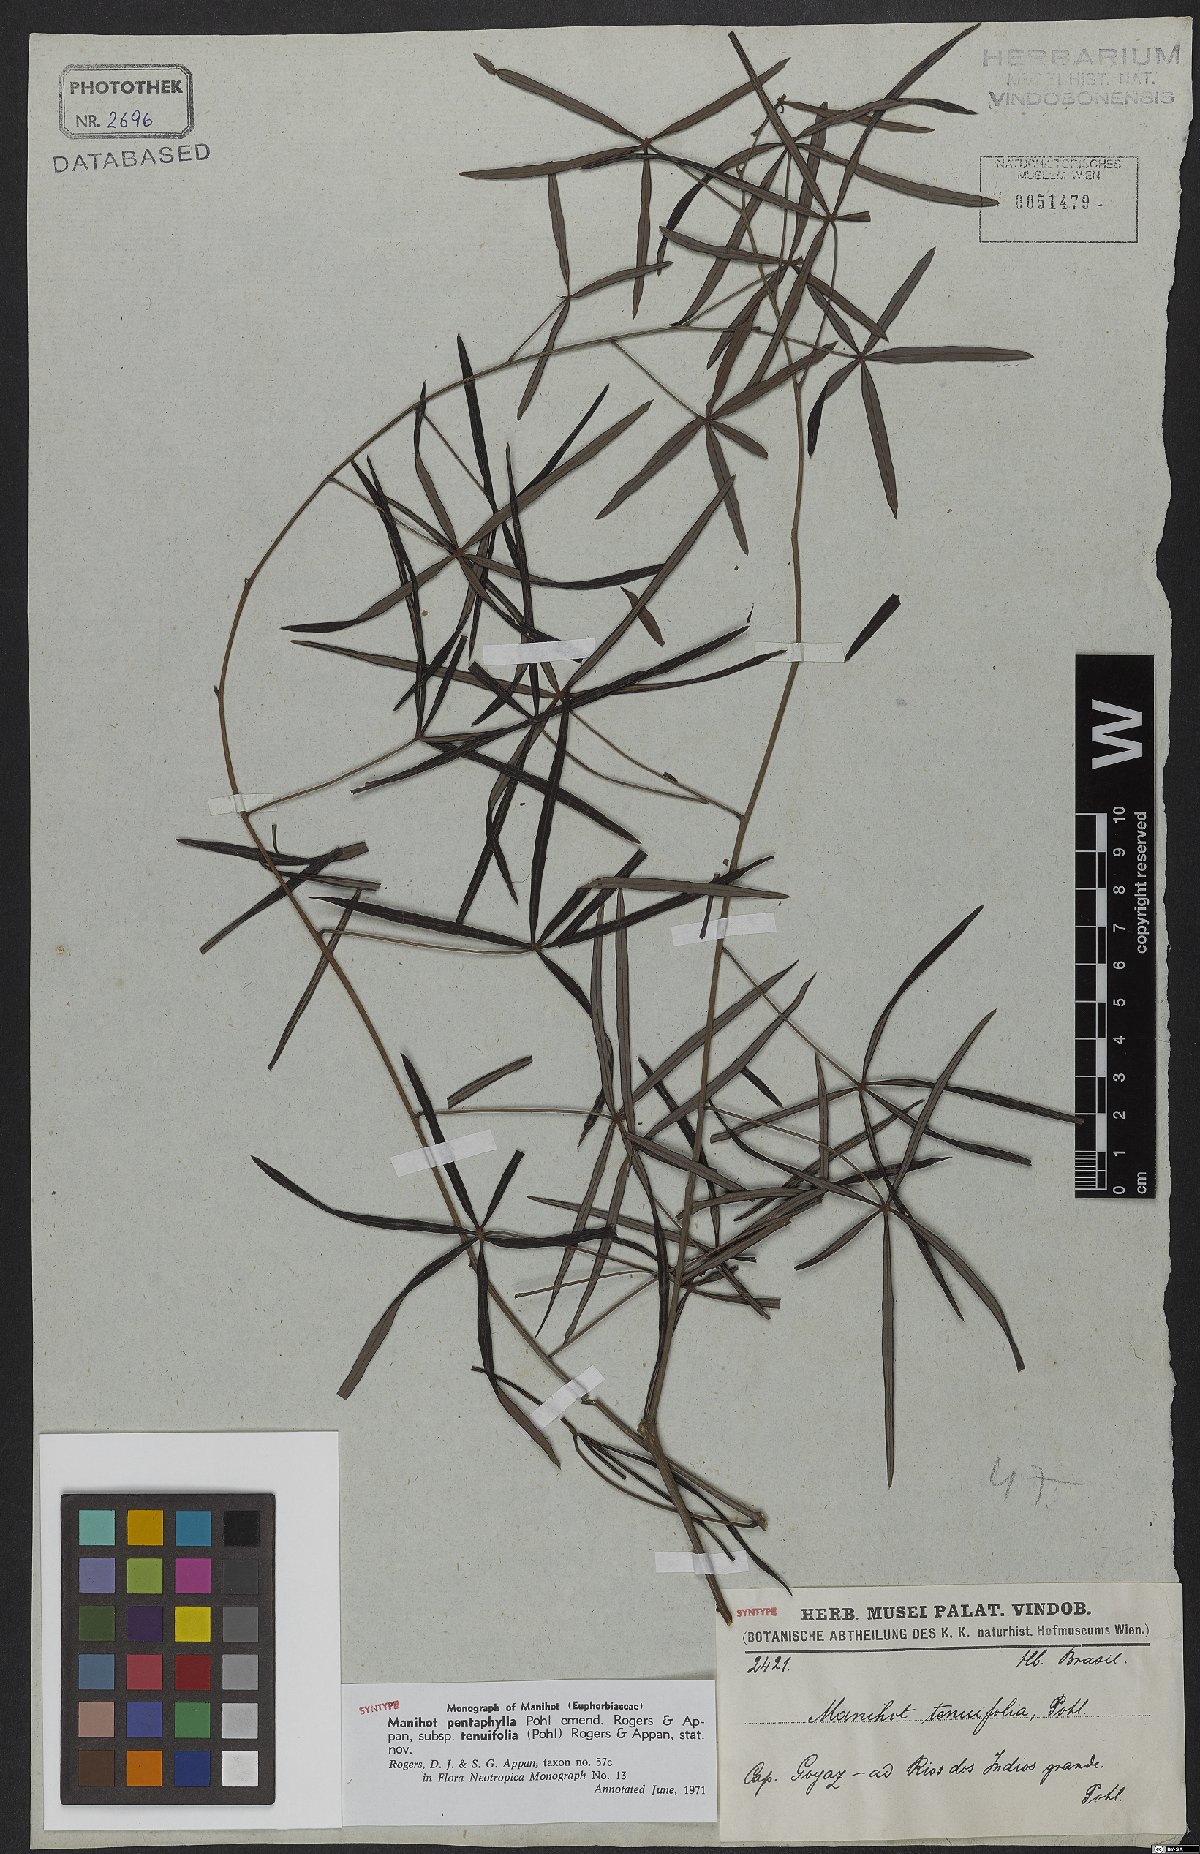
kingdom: Plantae
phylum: Tracheophyta
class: Magnoliopsida
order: Malpighiales
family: Euphorbiaceae
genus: Manihot
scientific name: Manihot pentaphylla
